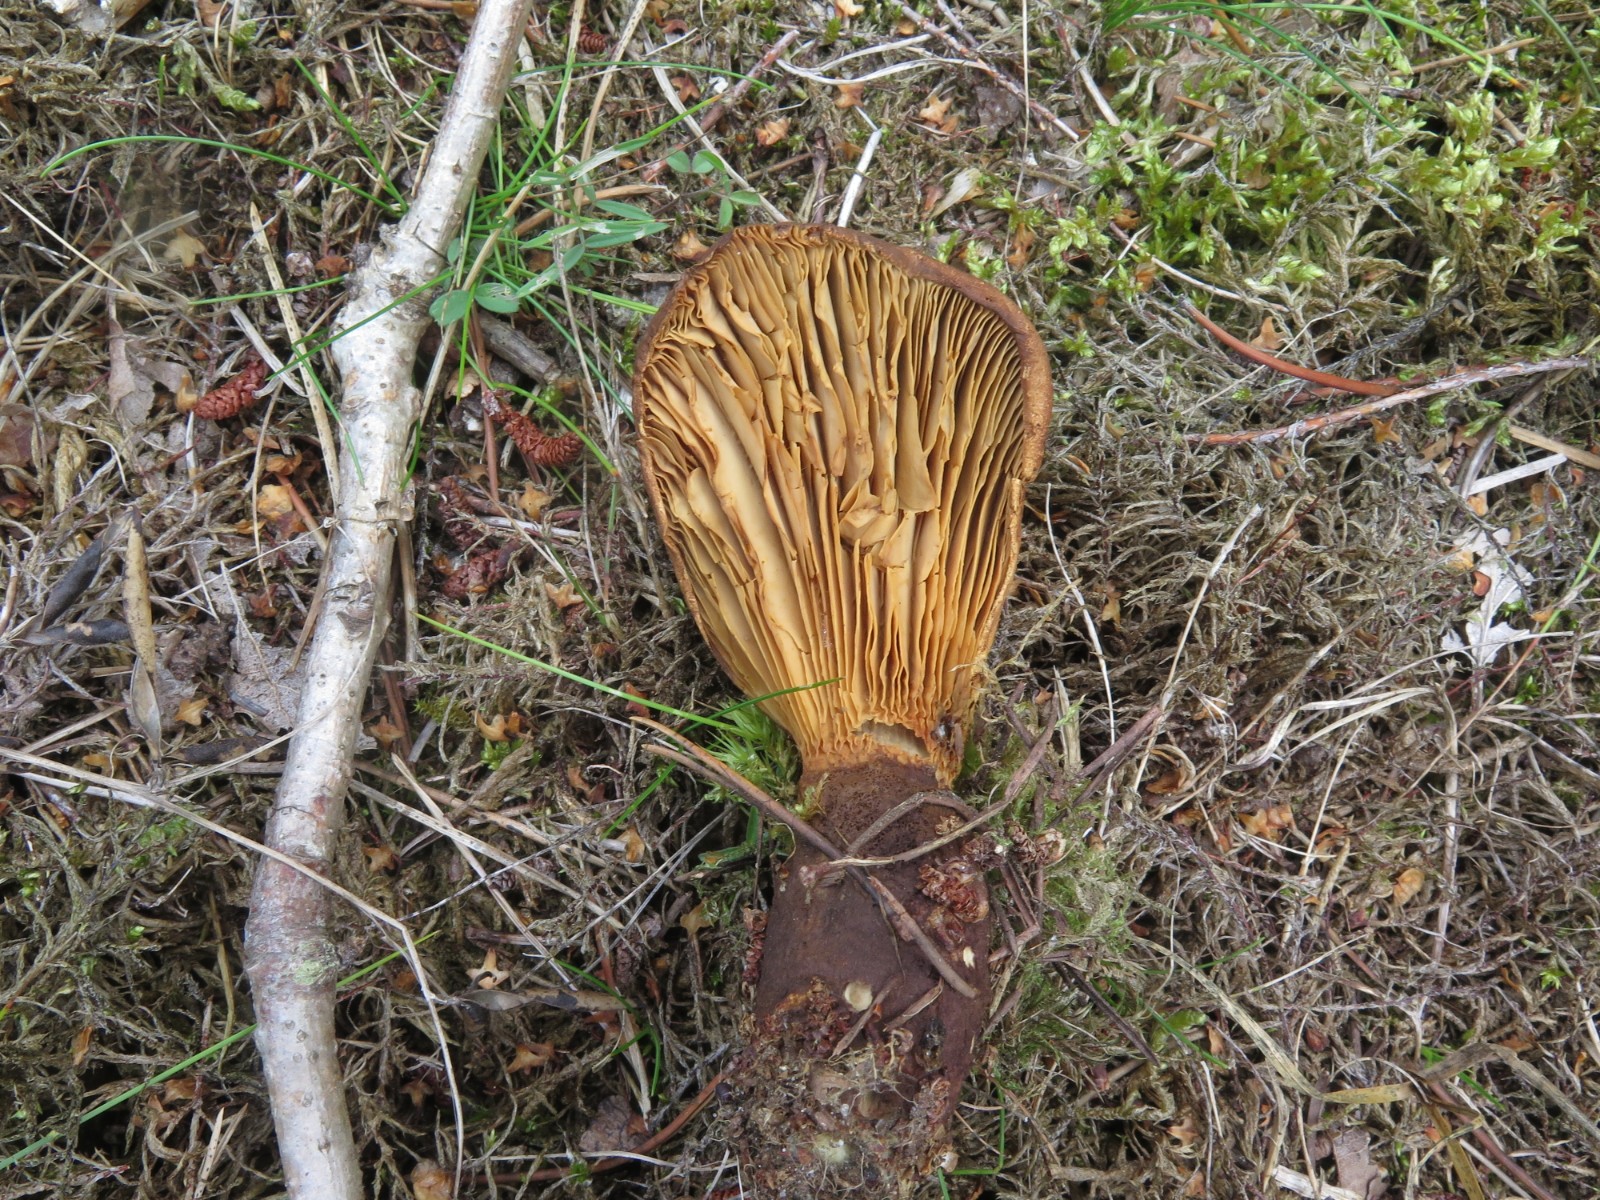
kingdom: Fungi
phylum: Basidiomycota
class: Agaricomycetes
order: Boletales
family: Tapinellaceae
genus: Tapinella
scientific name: Tapinella atrotomentosa
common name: sortfiltet viftesvamp
